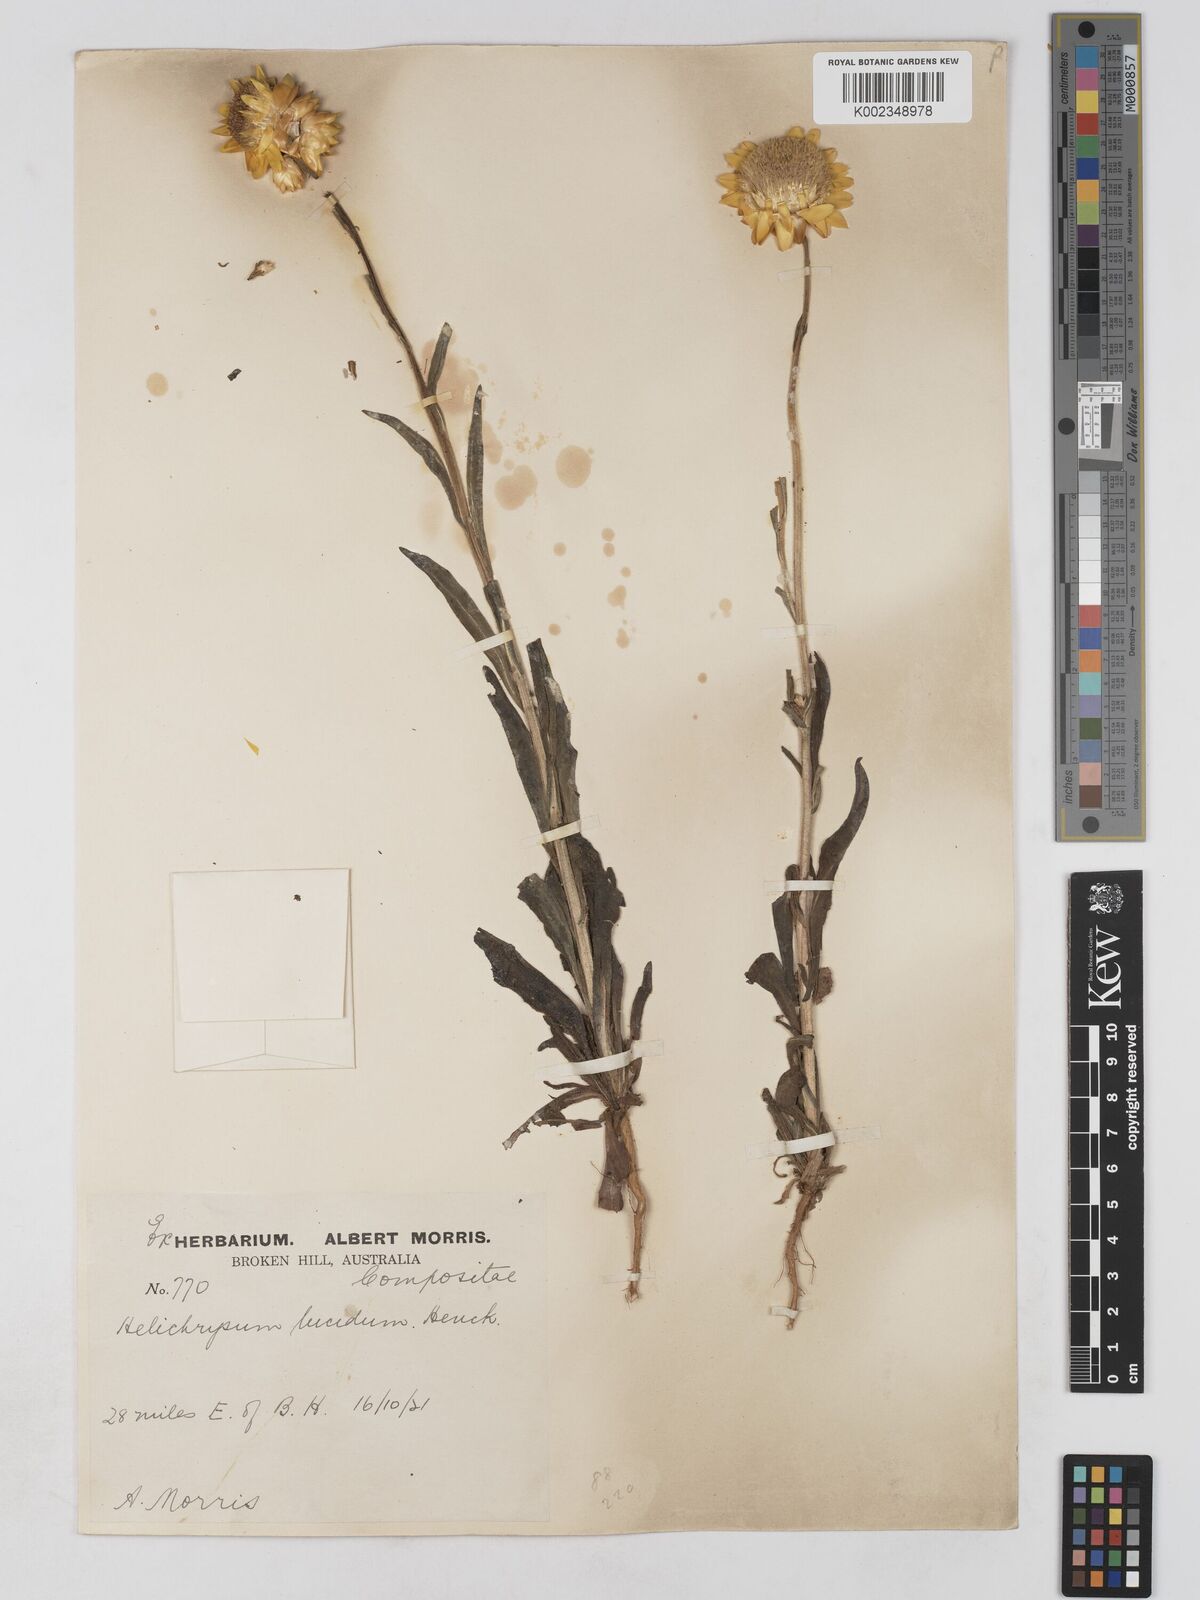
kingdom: Plantae
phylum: Tracheophyta
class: Magnoliopsida
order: Asterales
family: Asteraceae
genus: Xerochrysum
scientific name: Xerochrysum bracteatum
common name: Bracted strawflower
